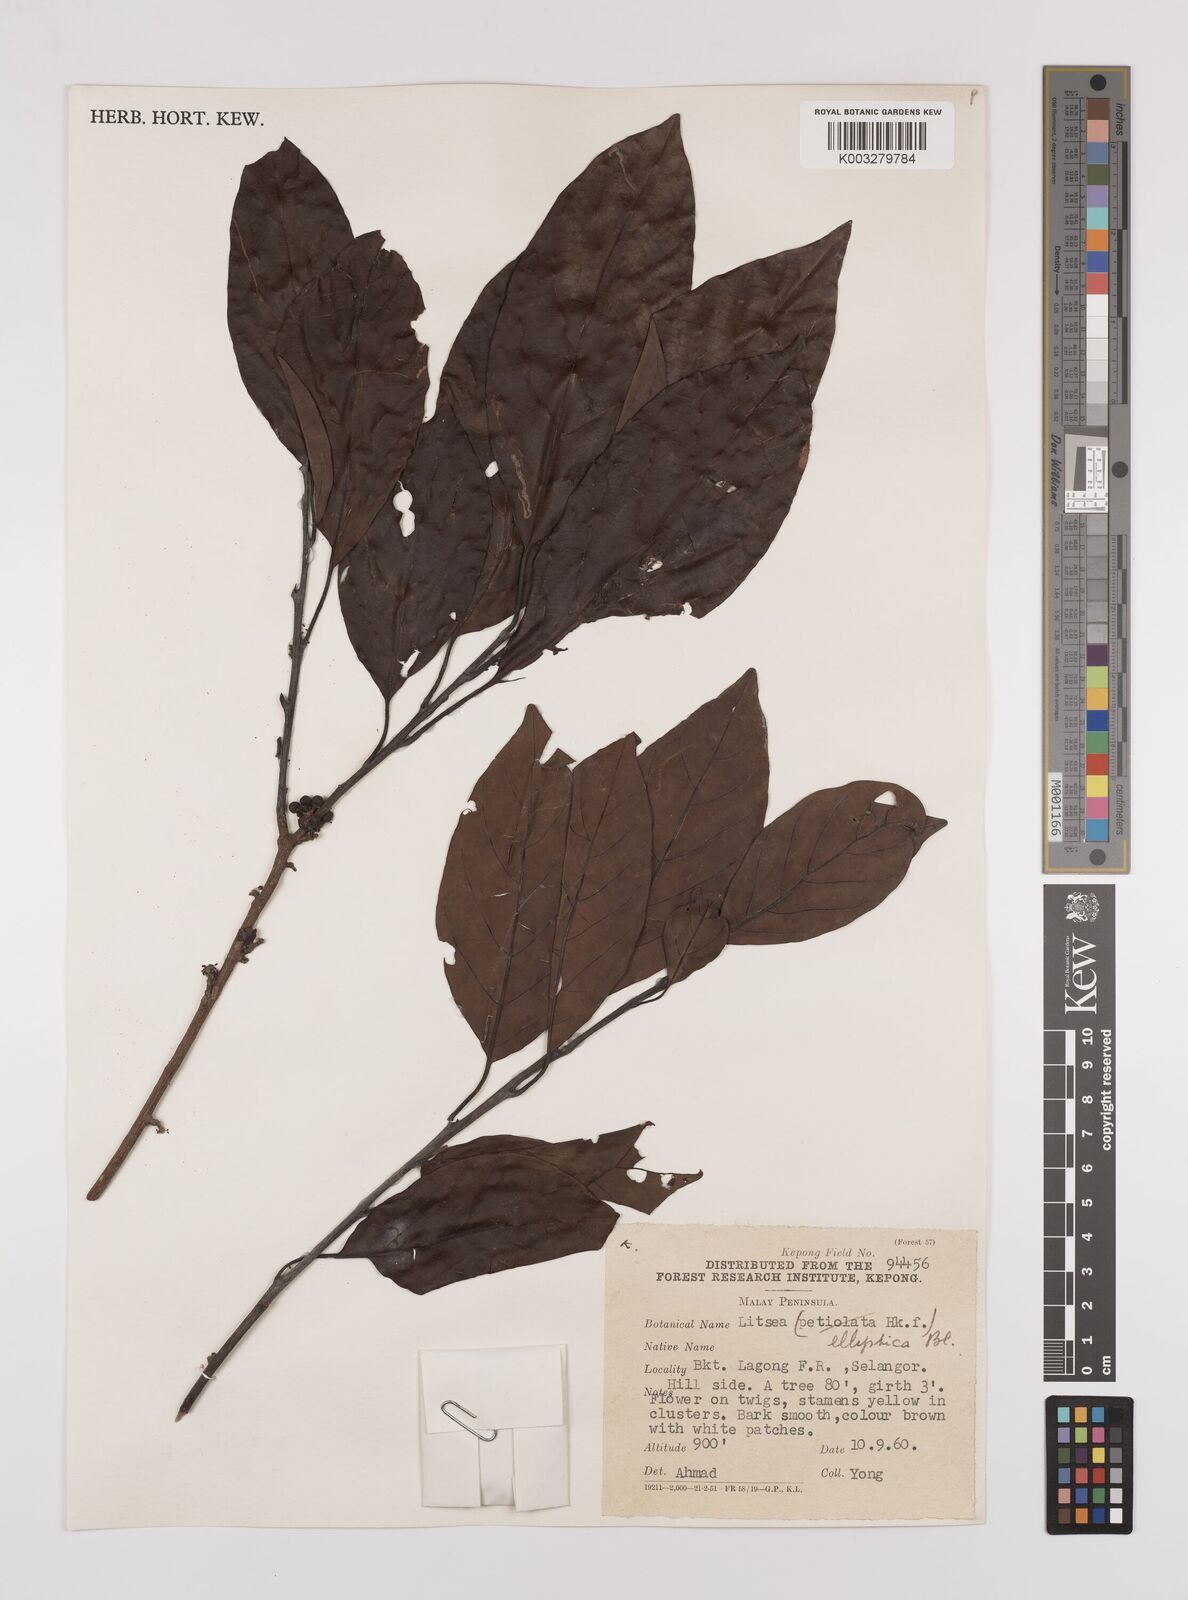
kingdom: Plantae
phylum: Tracheophyta
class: Magnoliopsida
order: Laurales
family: Lauraceae
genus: Litsea
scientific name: Litsea elliptica
